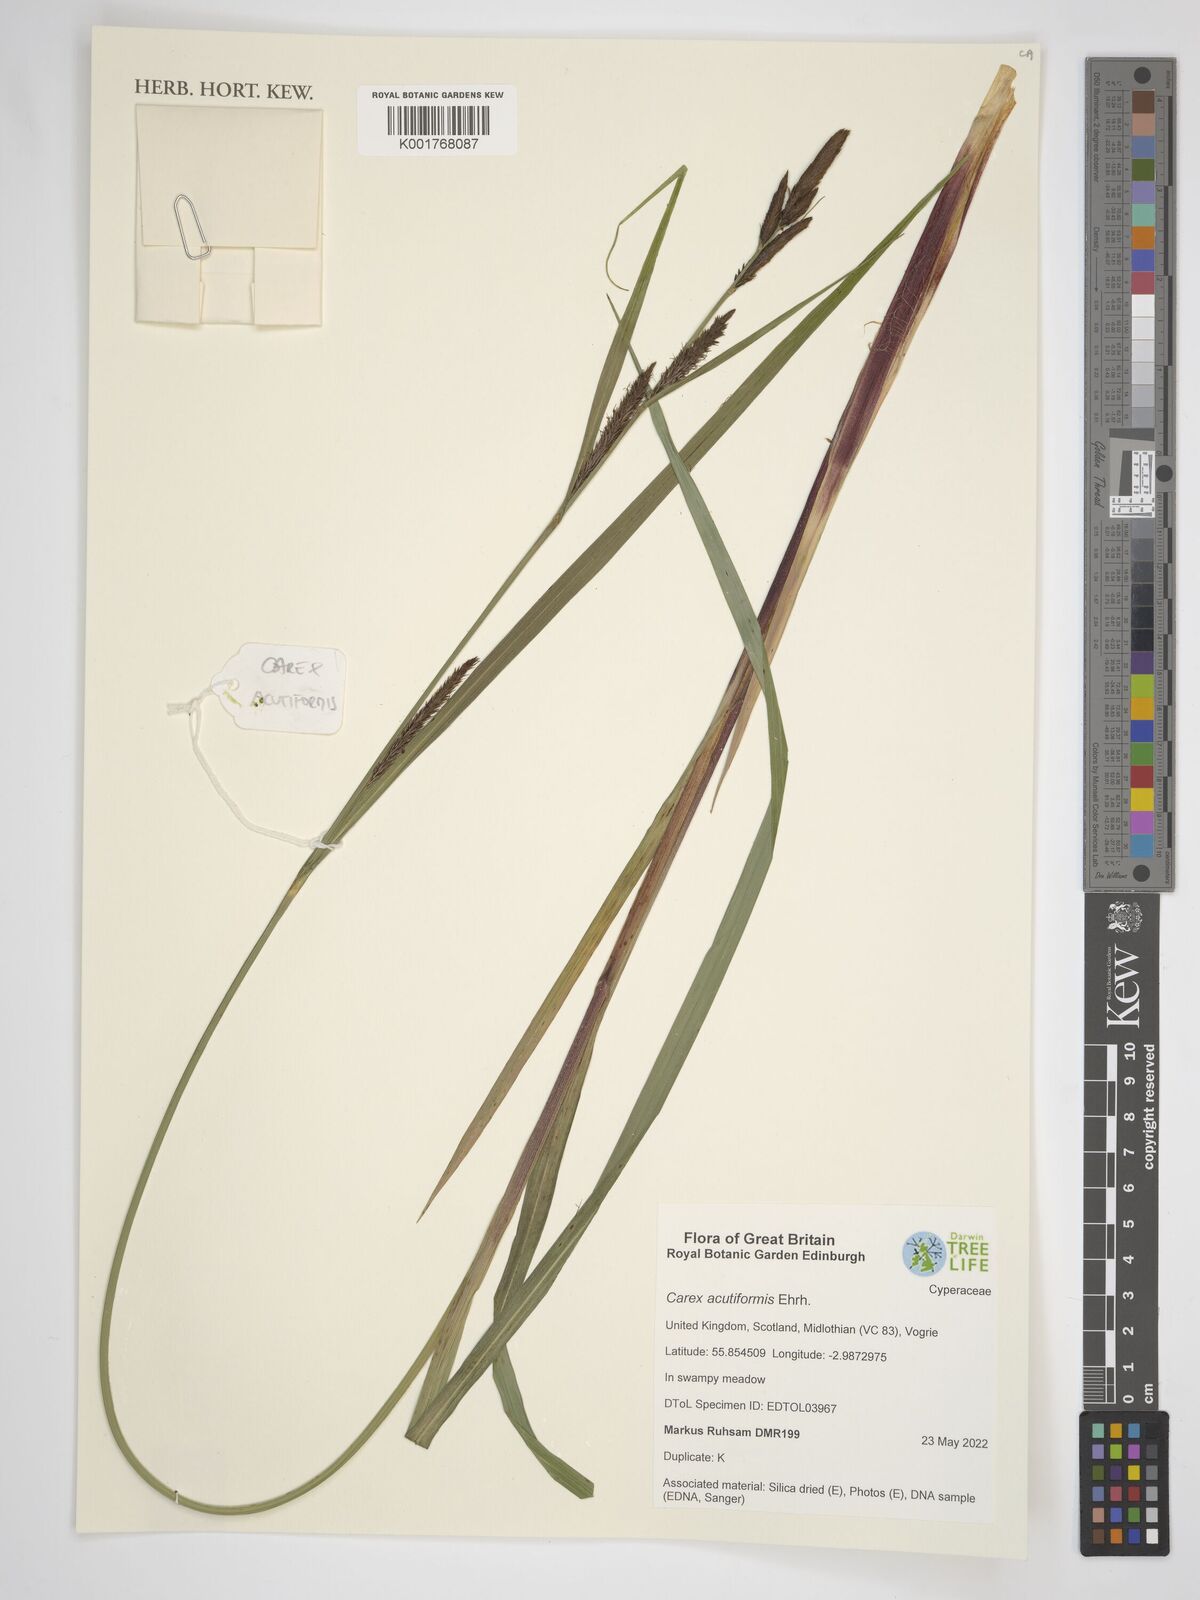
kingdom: Plantae
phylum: Tracheophyta
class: Liliopsida
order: Poales
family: Cyperaceae
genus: Carex
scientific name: Carex acutiformis
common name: Lesser pond-sedge
